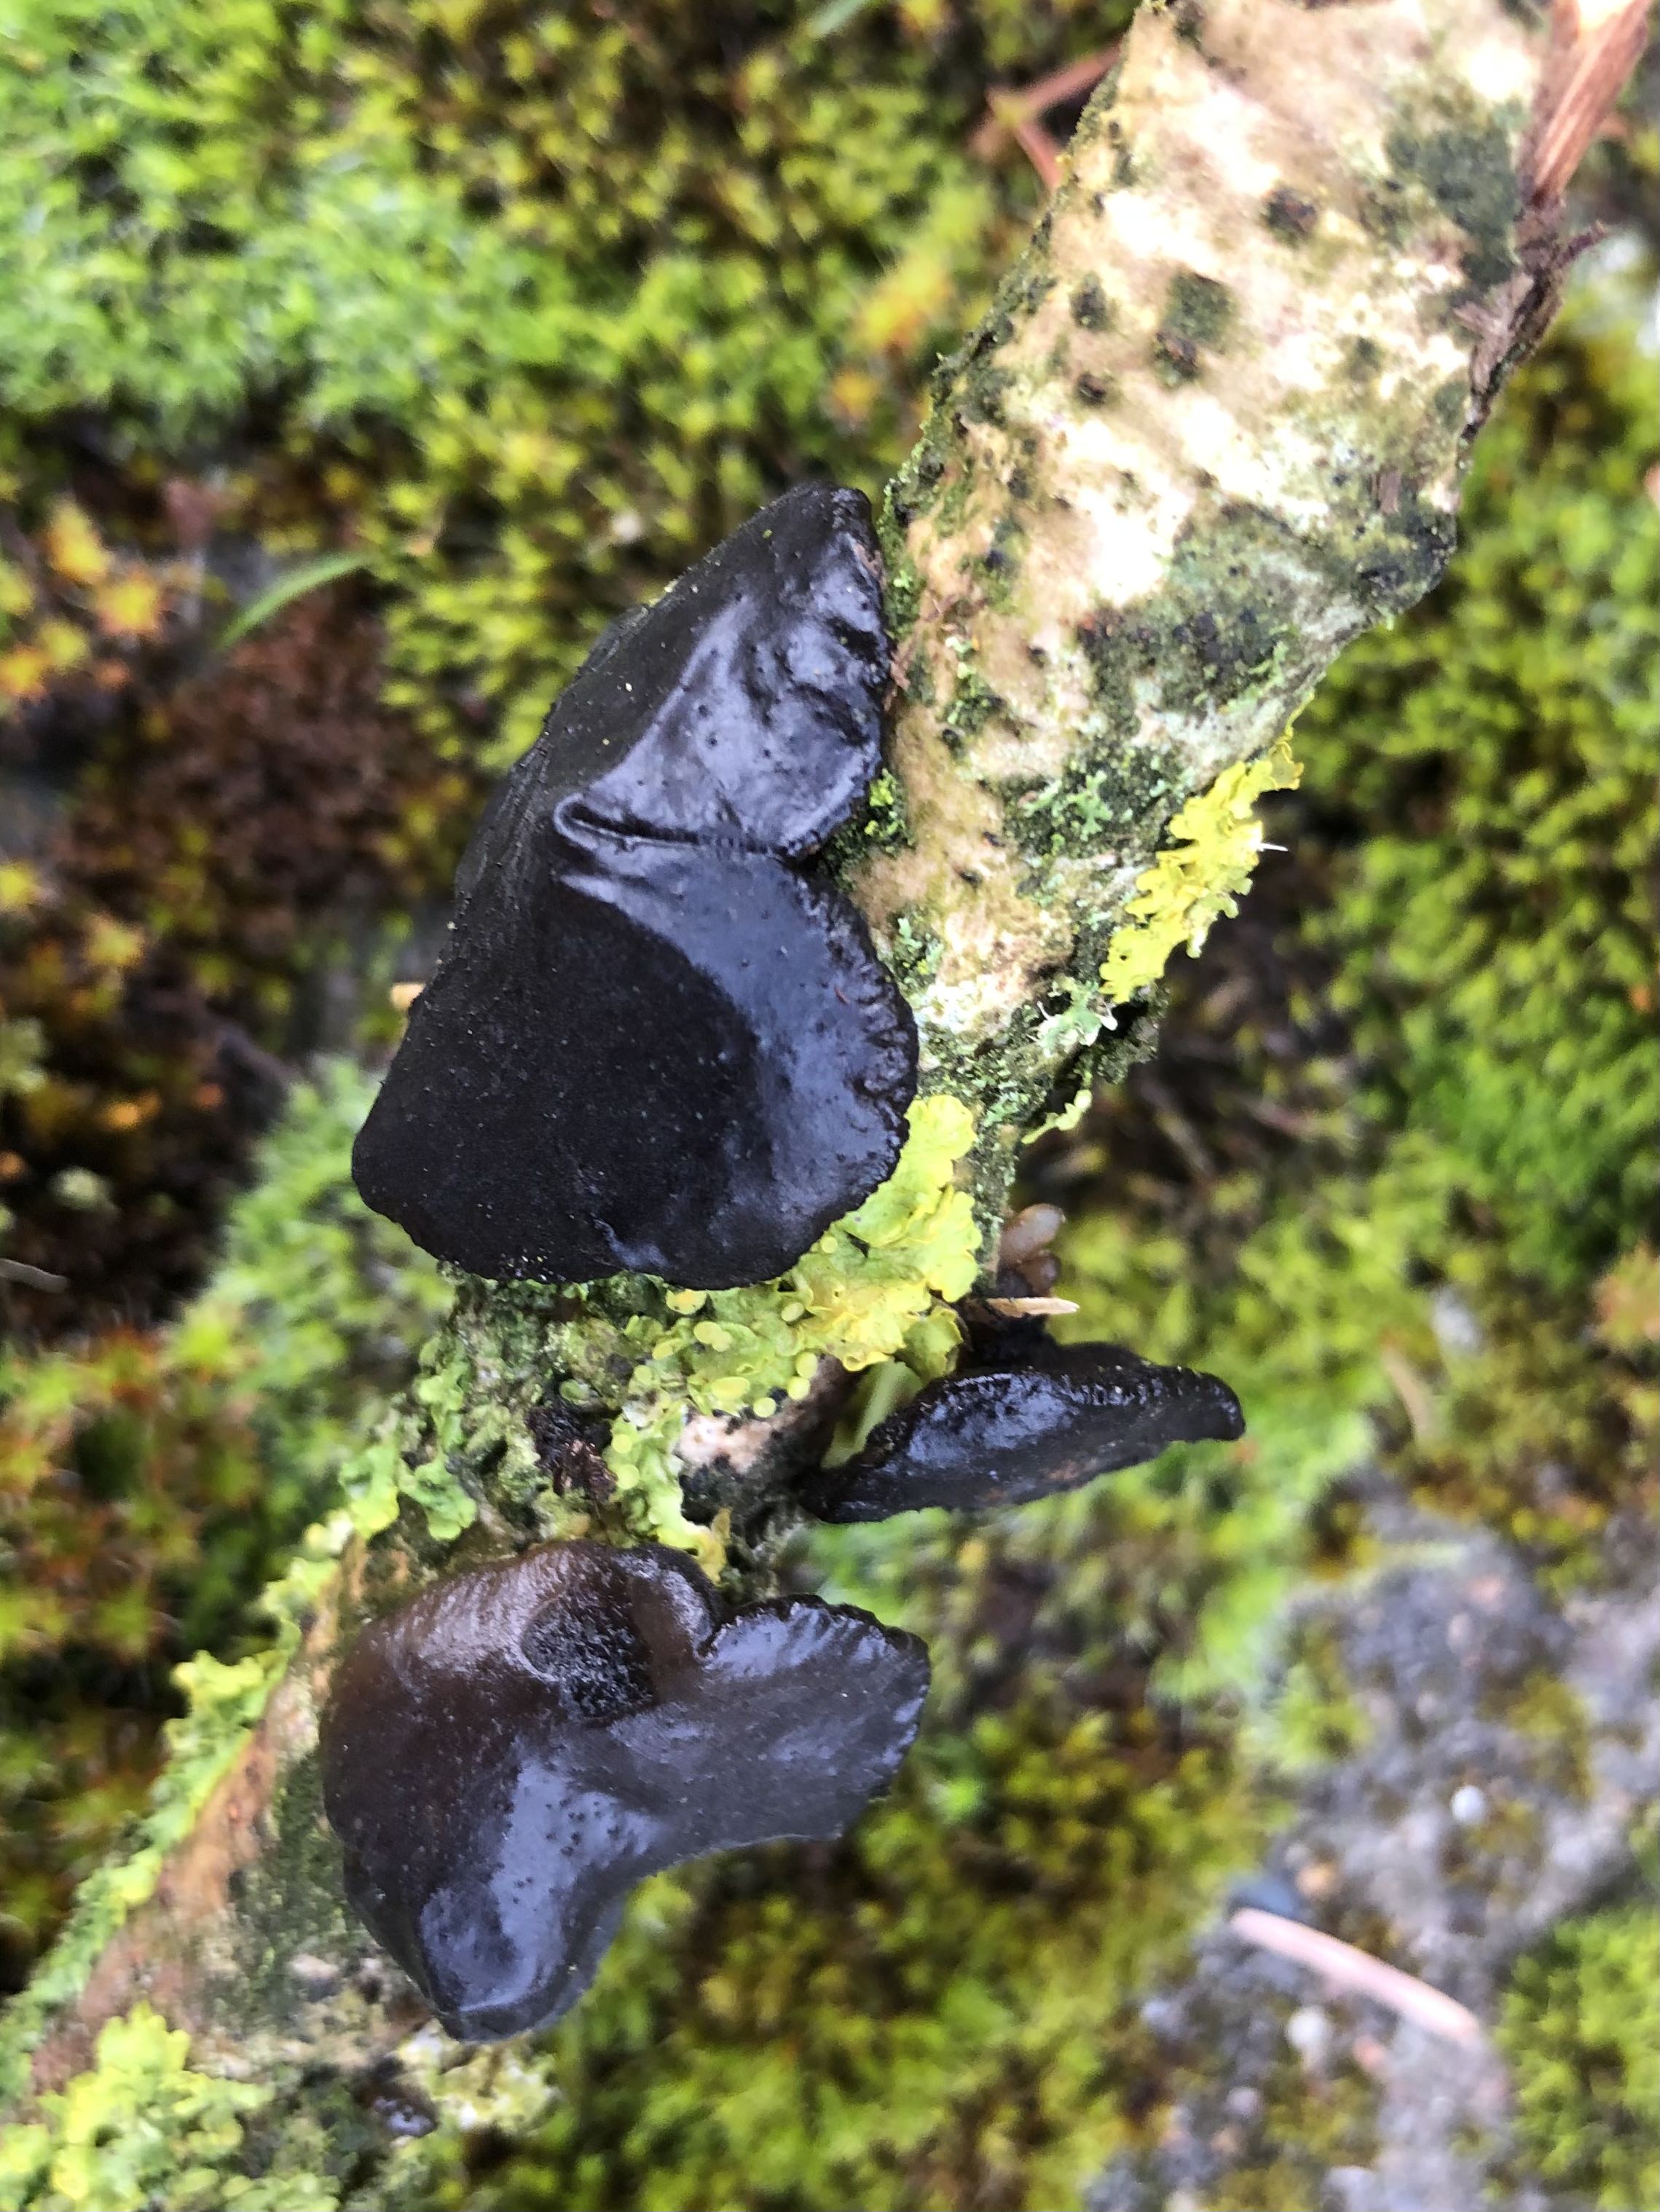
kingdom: Fungi
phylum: Basidiomycota
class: Agaricomycetes
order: Auriculariales
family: Auriculariaceae
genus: Exidia
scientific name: Exidia glandulosa
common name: ege-bævretop
